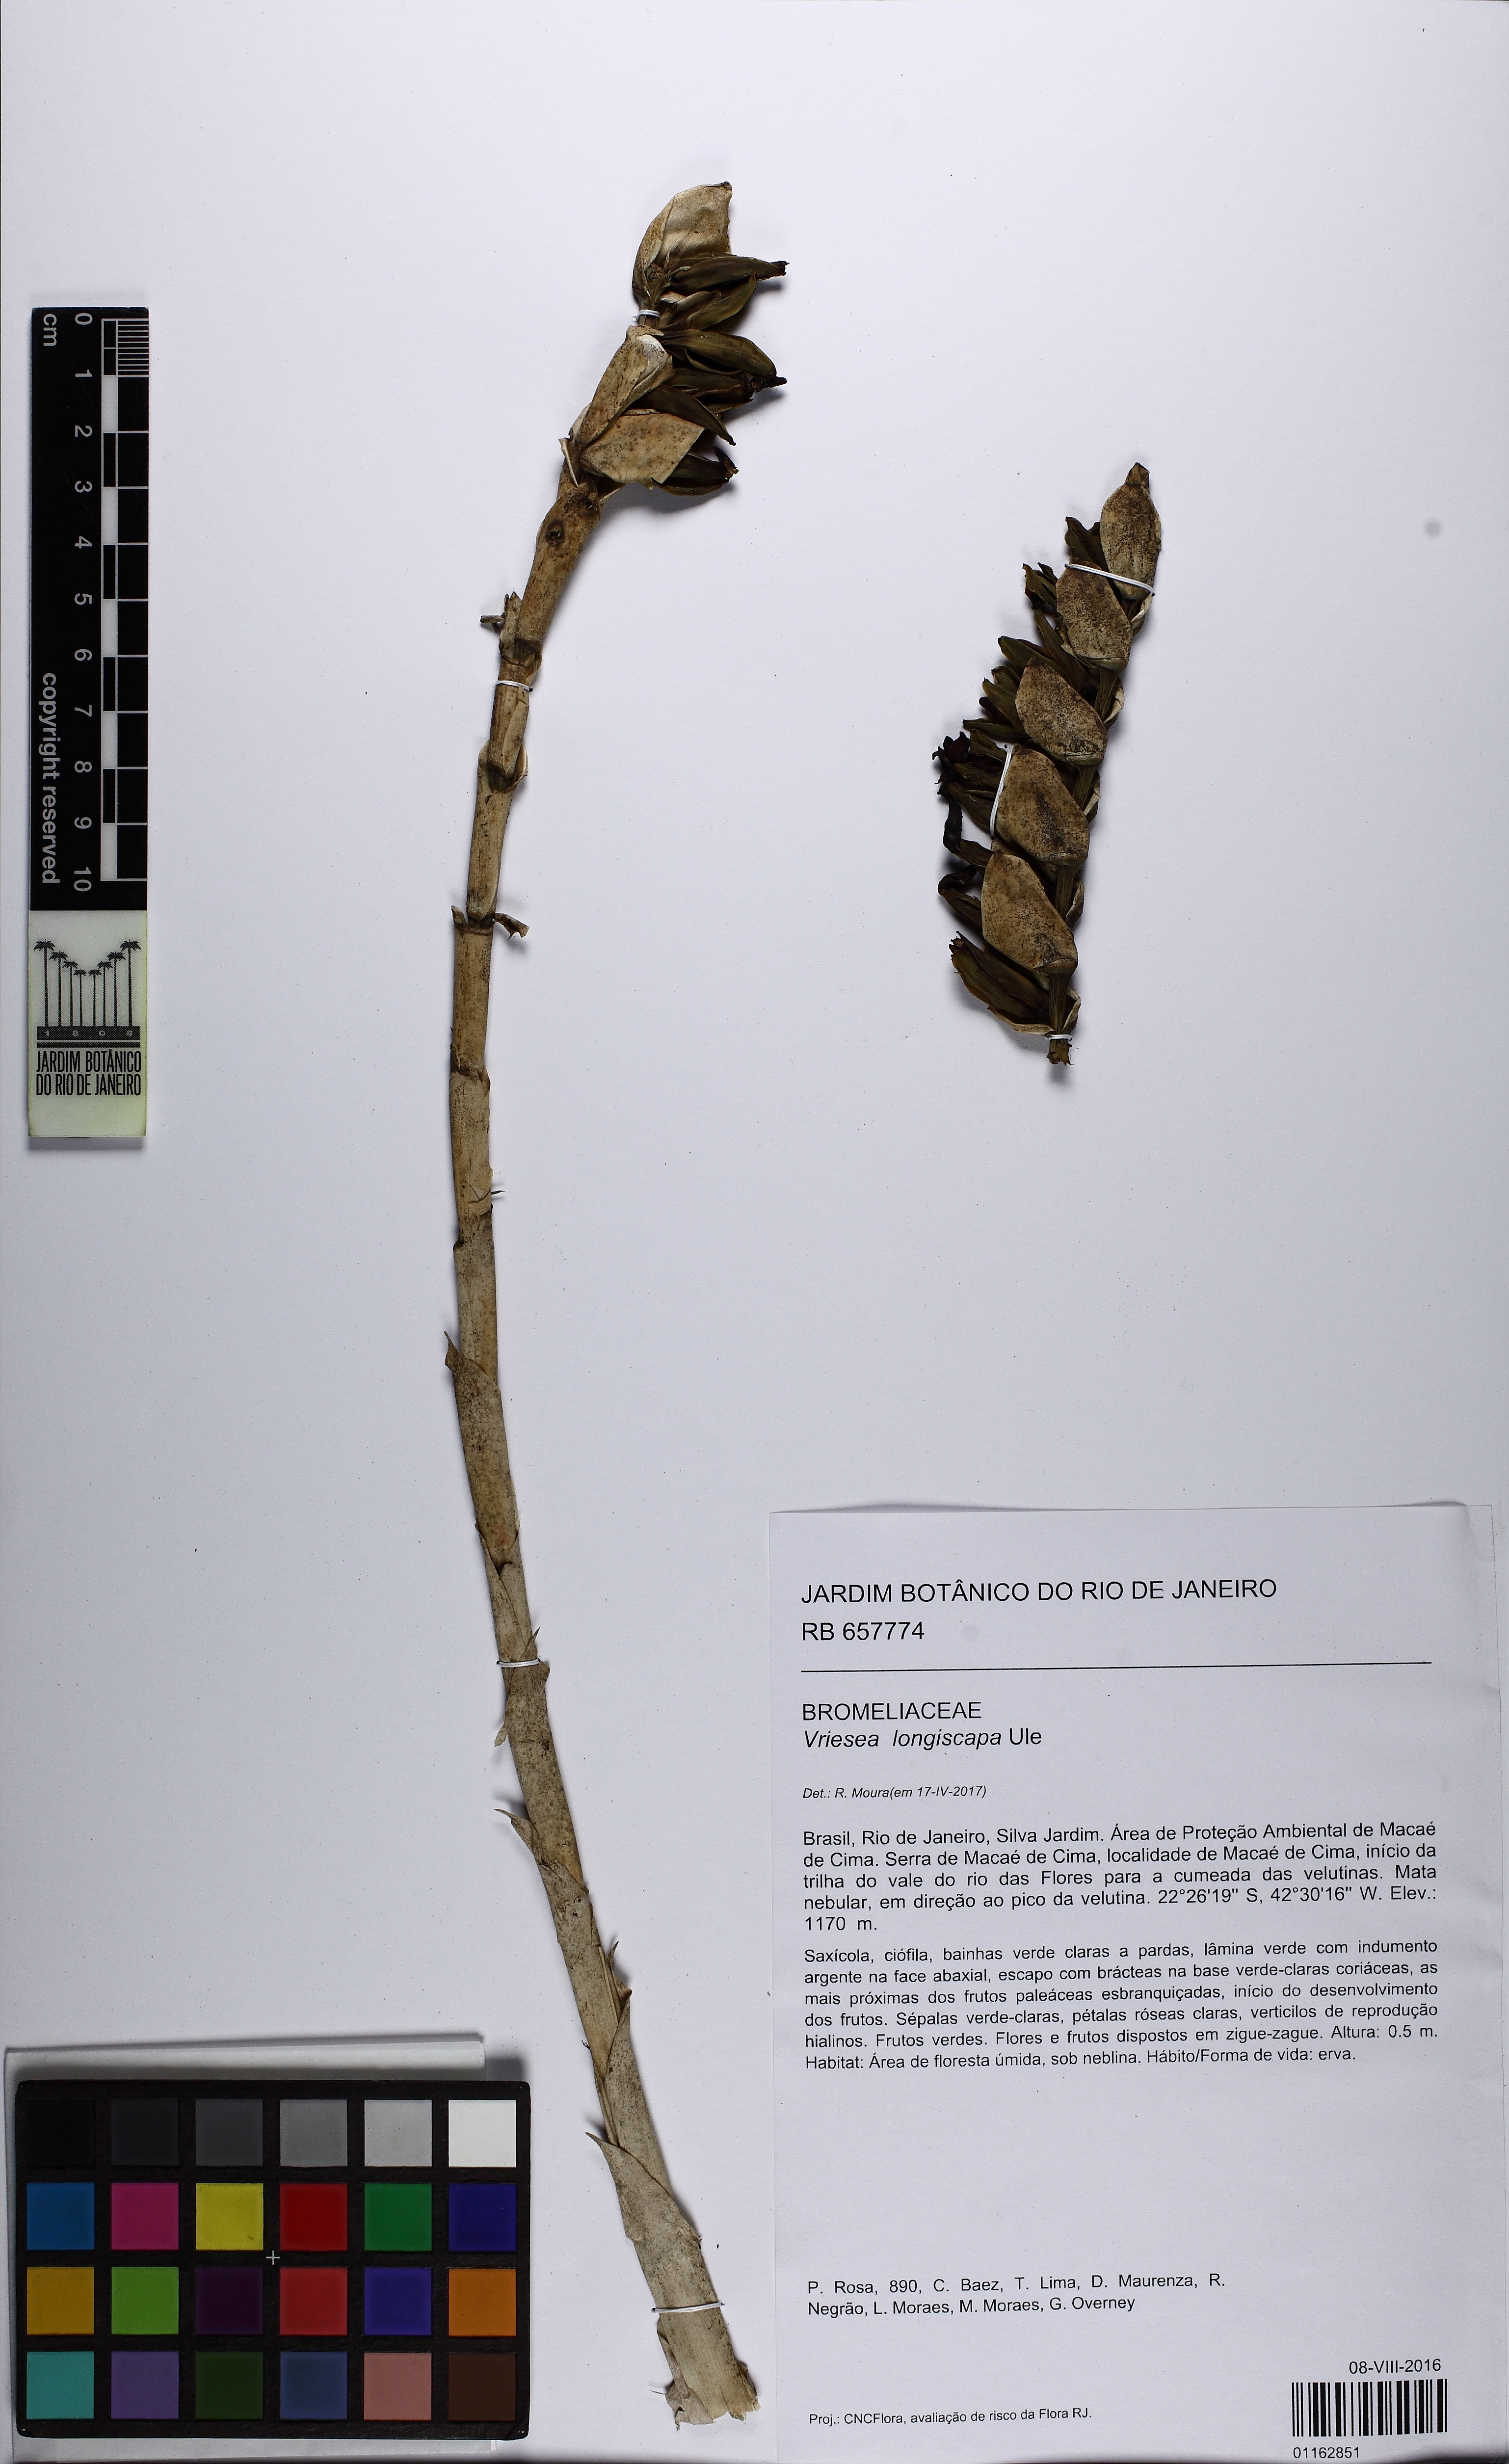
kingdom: Plantae
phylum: Tracheophyta
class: Liliopsida
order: Poales
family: Bromeliaceae
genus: Vriesea
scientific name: Vriesea longiscapa
